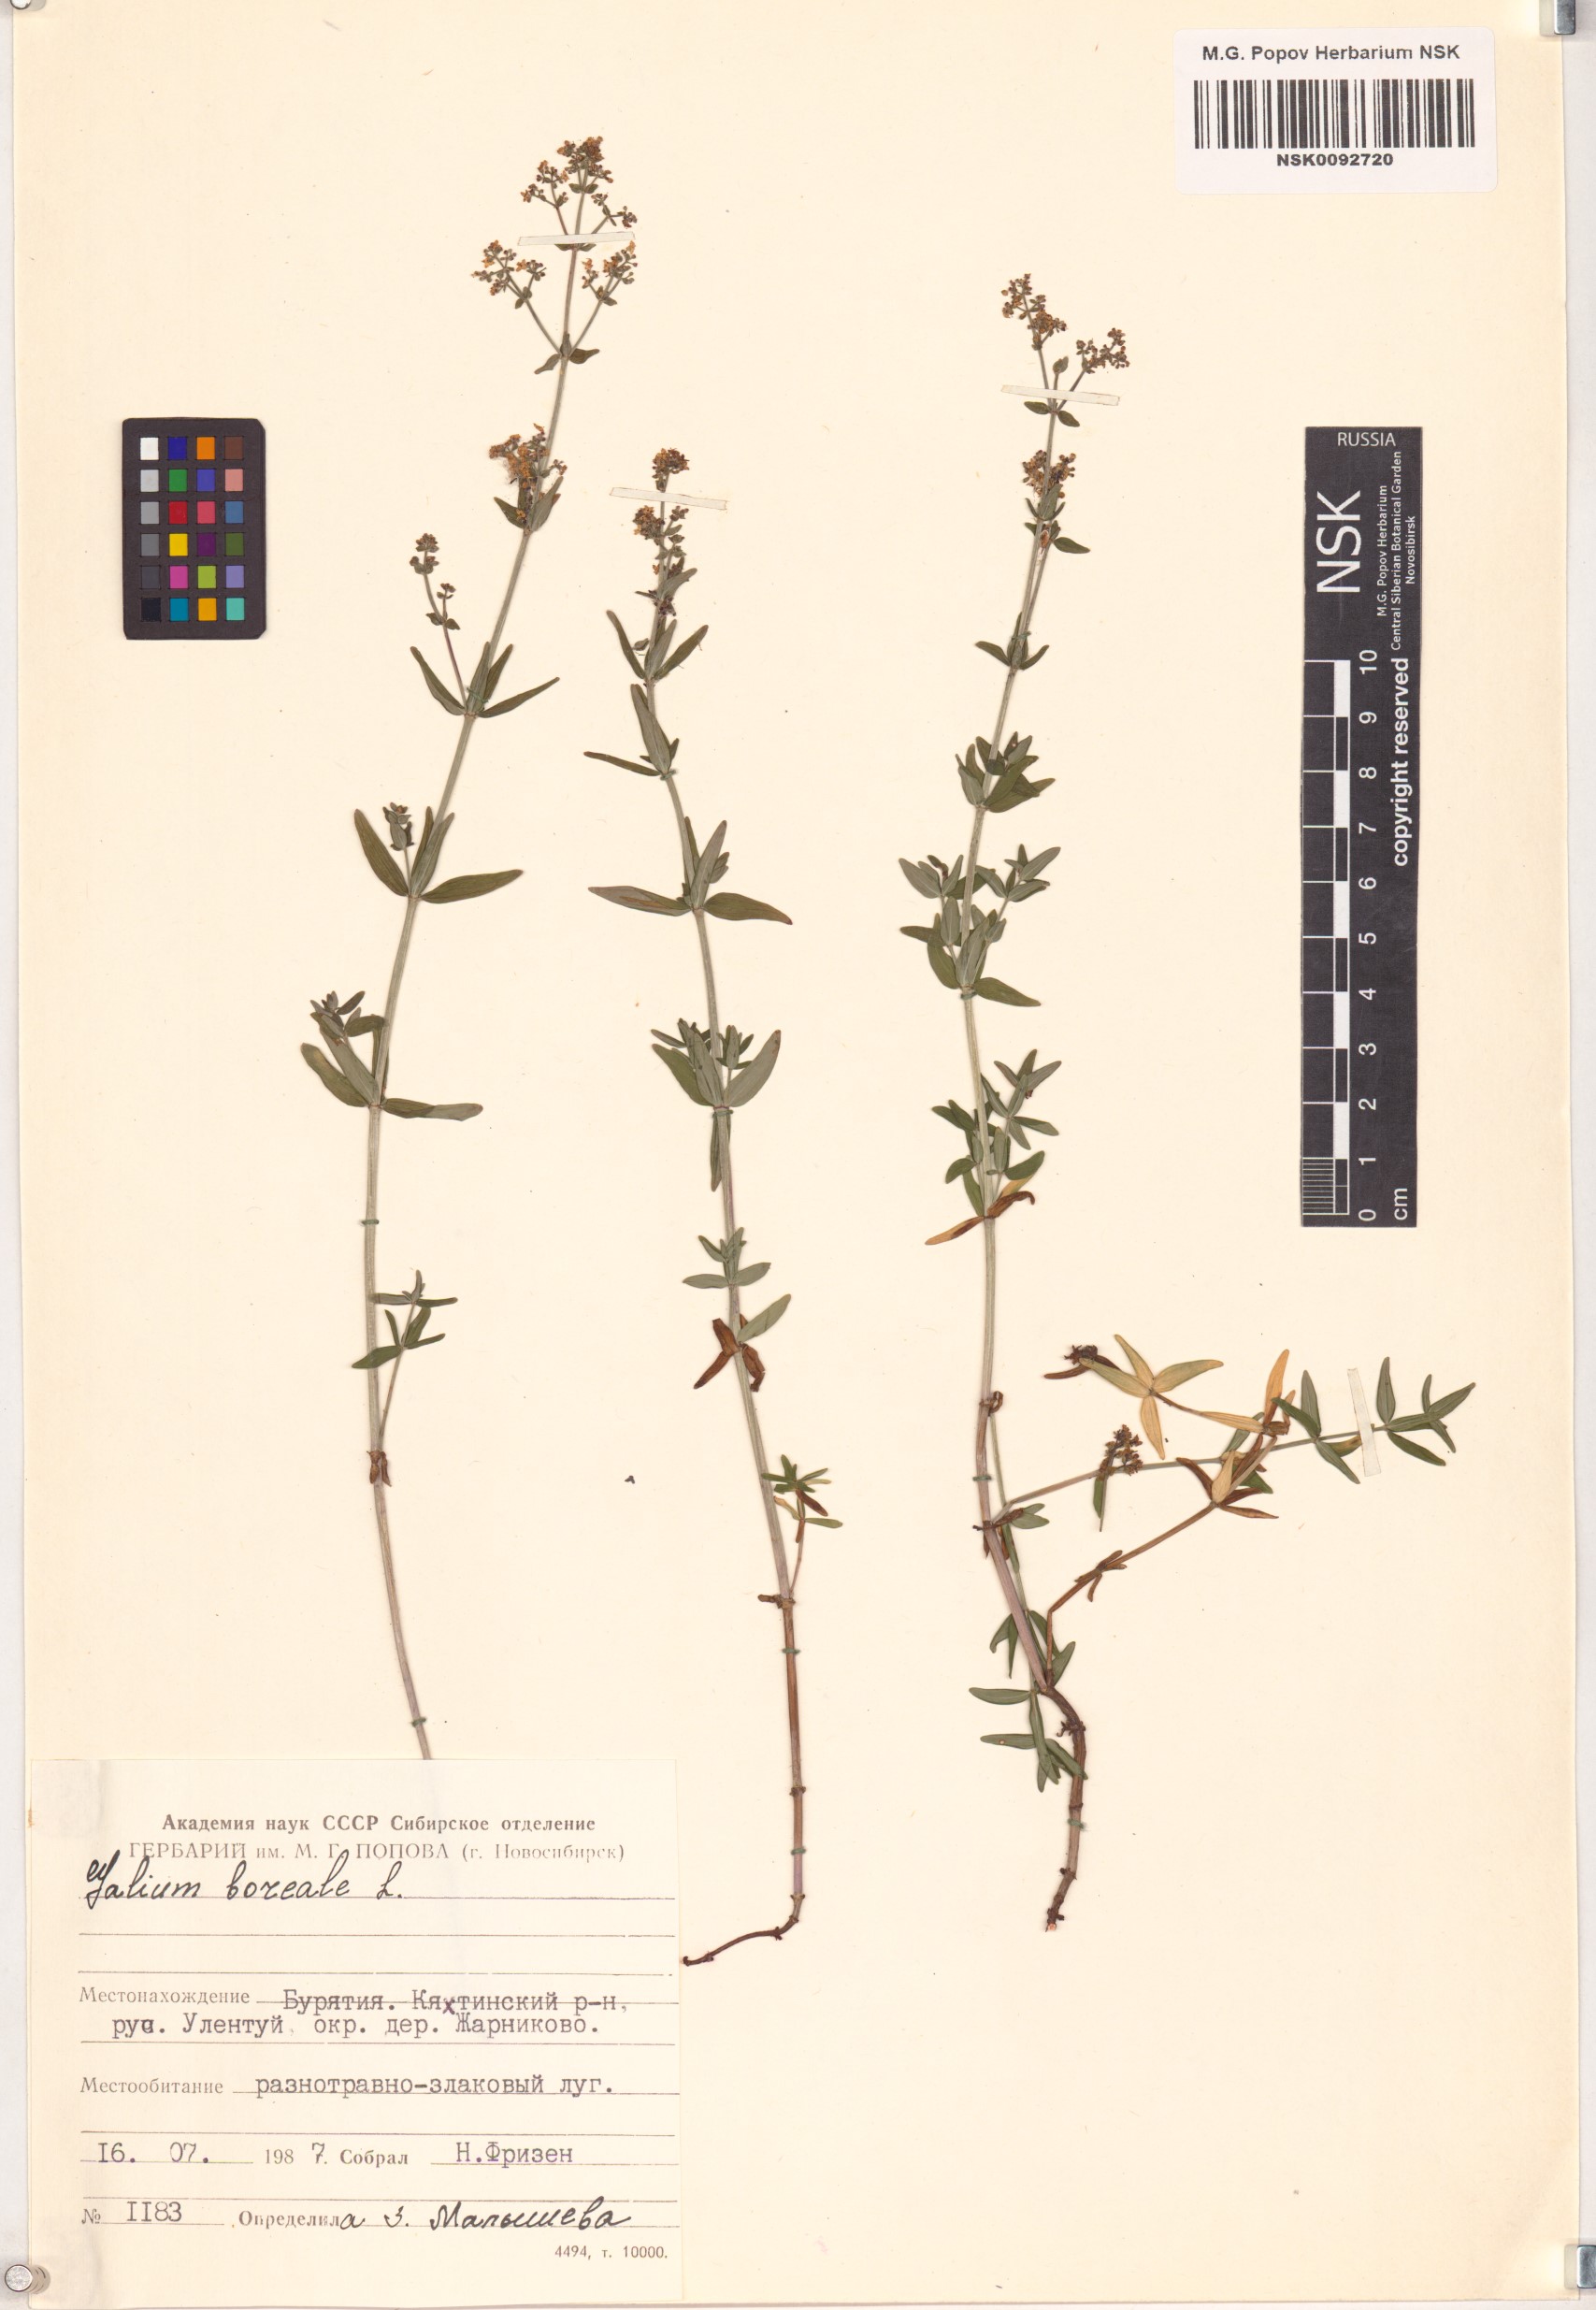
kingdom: Plantae
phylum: Tracheophyta
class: Magnoliopsida
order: Gentianales
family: Rubiaceae
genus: Galium
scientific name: Galium boreale
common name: Northern bedstraw
